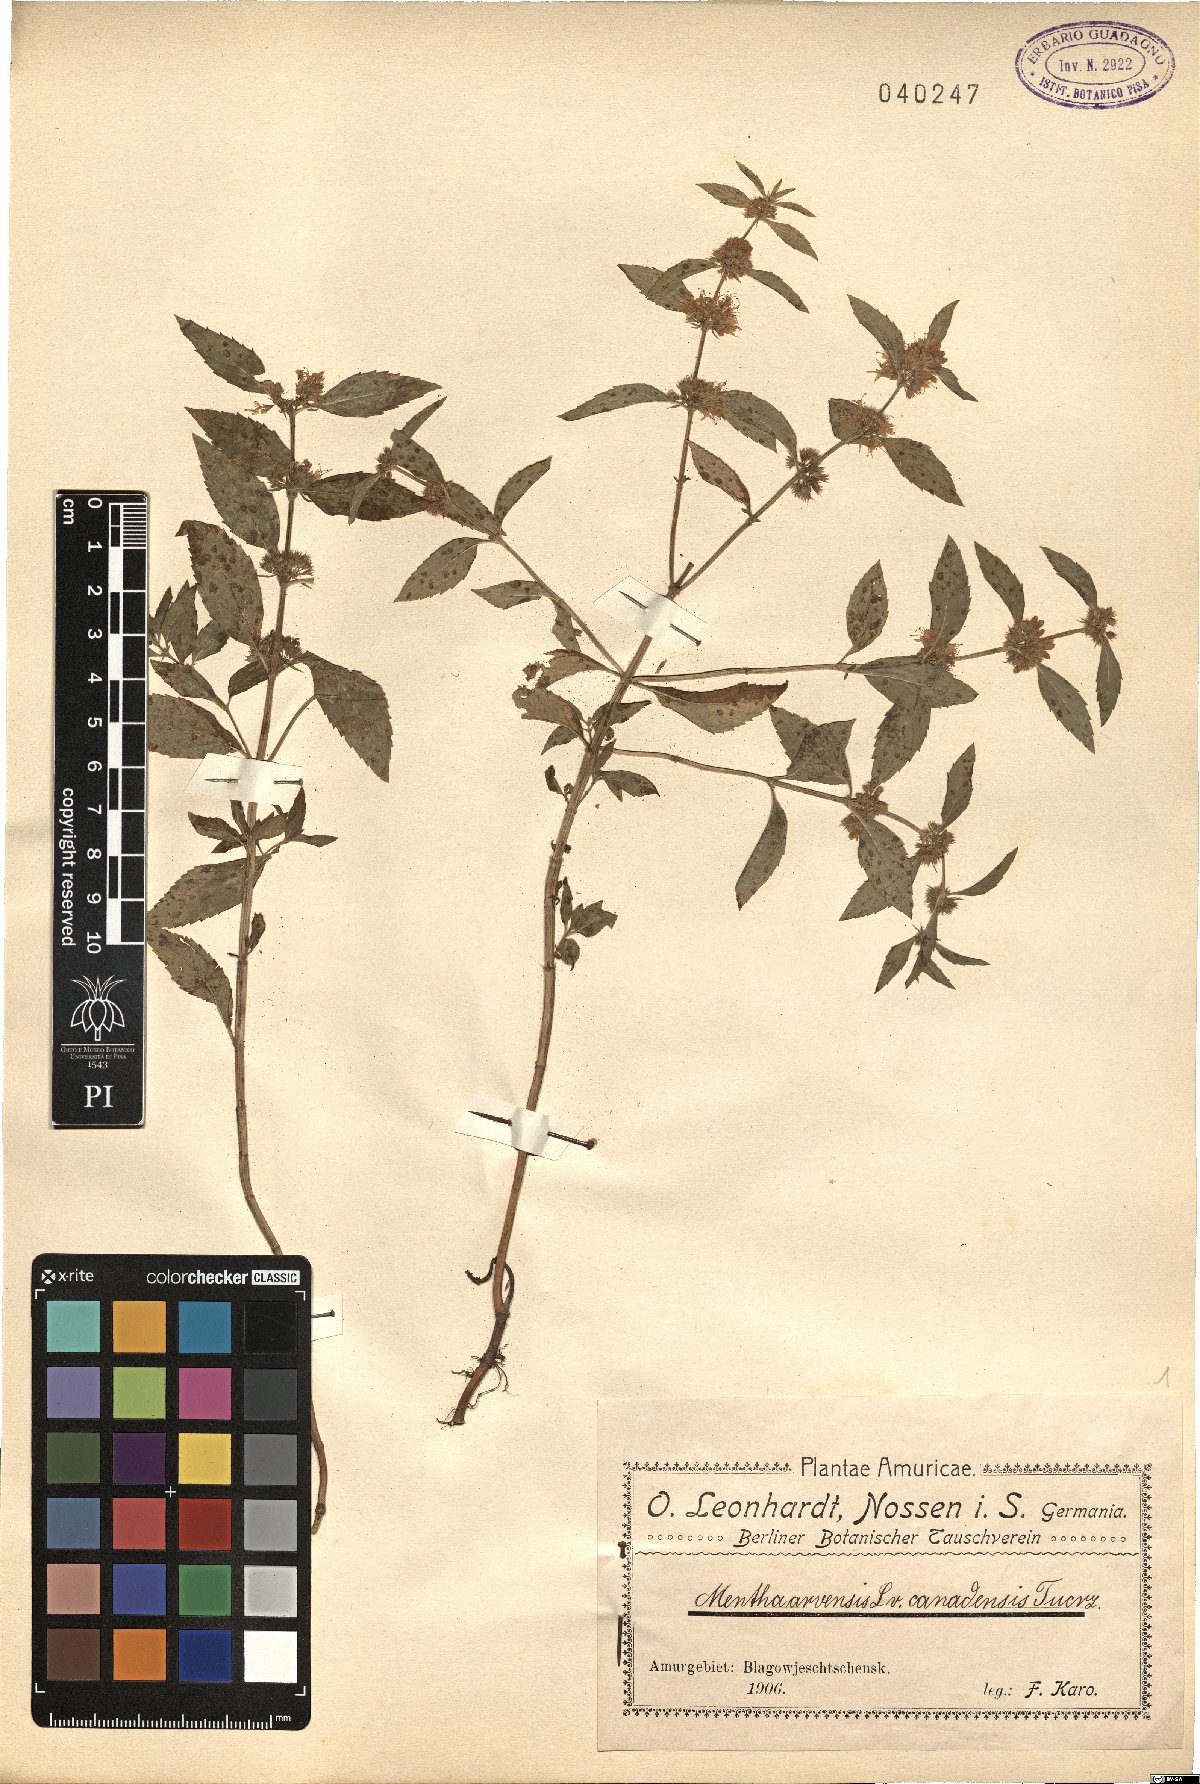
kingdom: Plantae
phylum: Tracheophyta
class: Magnoliopsida
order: Lamiales
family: Lamiaceae
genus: Mentha
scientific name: Mentha canadensis
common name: American corn mint
